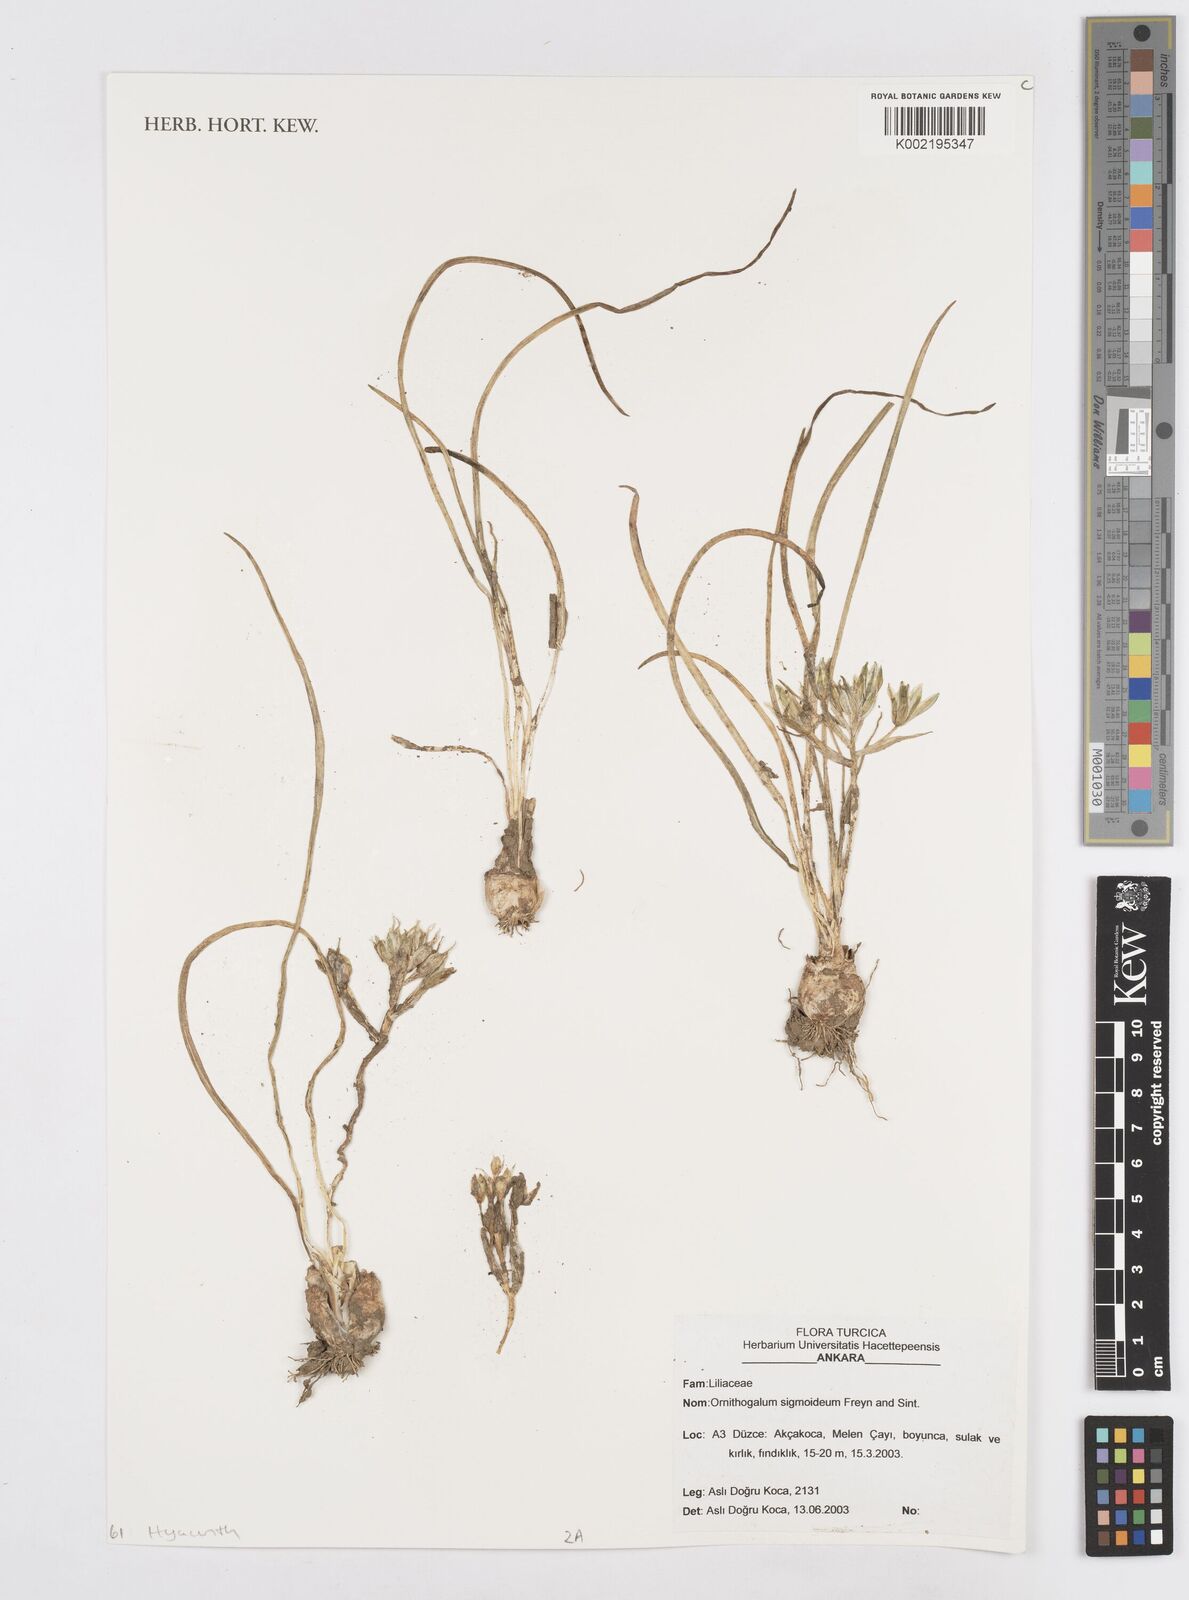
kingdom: Plantae
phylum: Tracheophyta
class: Liliopsida
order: Asparagales
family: Asparagaceae
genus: Ornithogalum
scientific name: Ornithogalum sigmoideum
